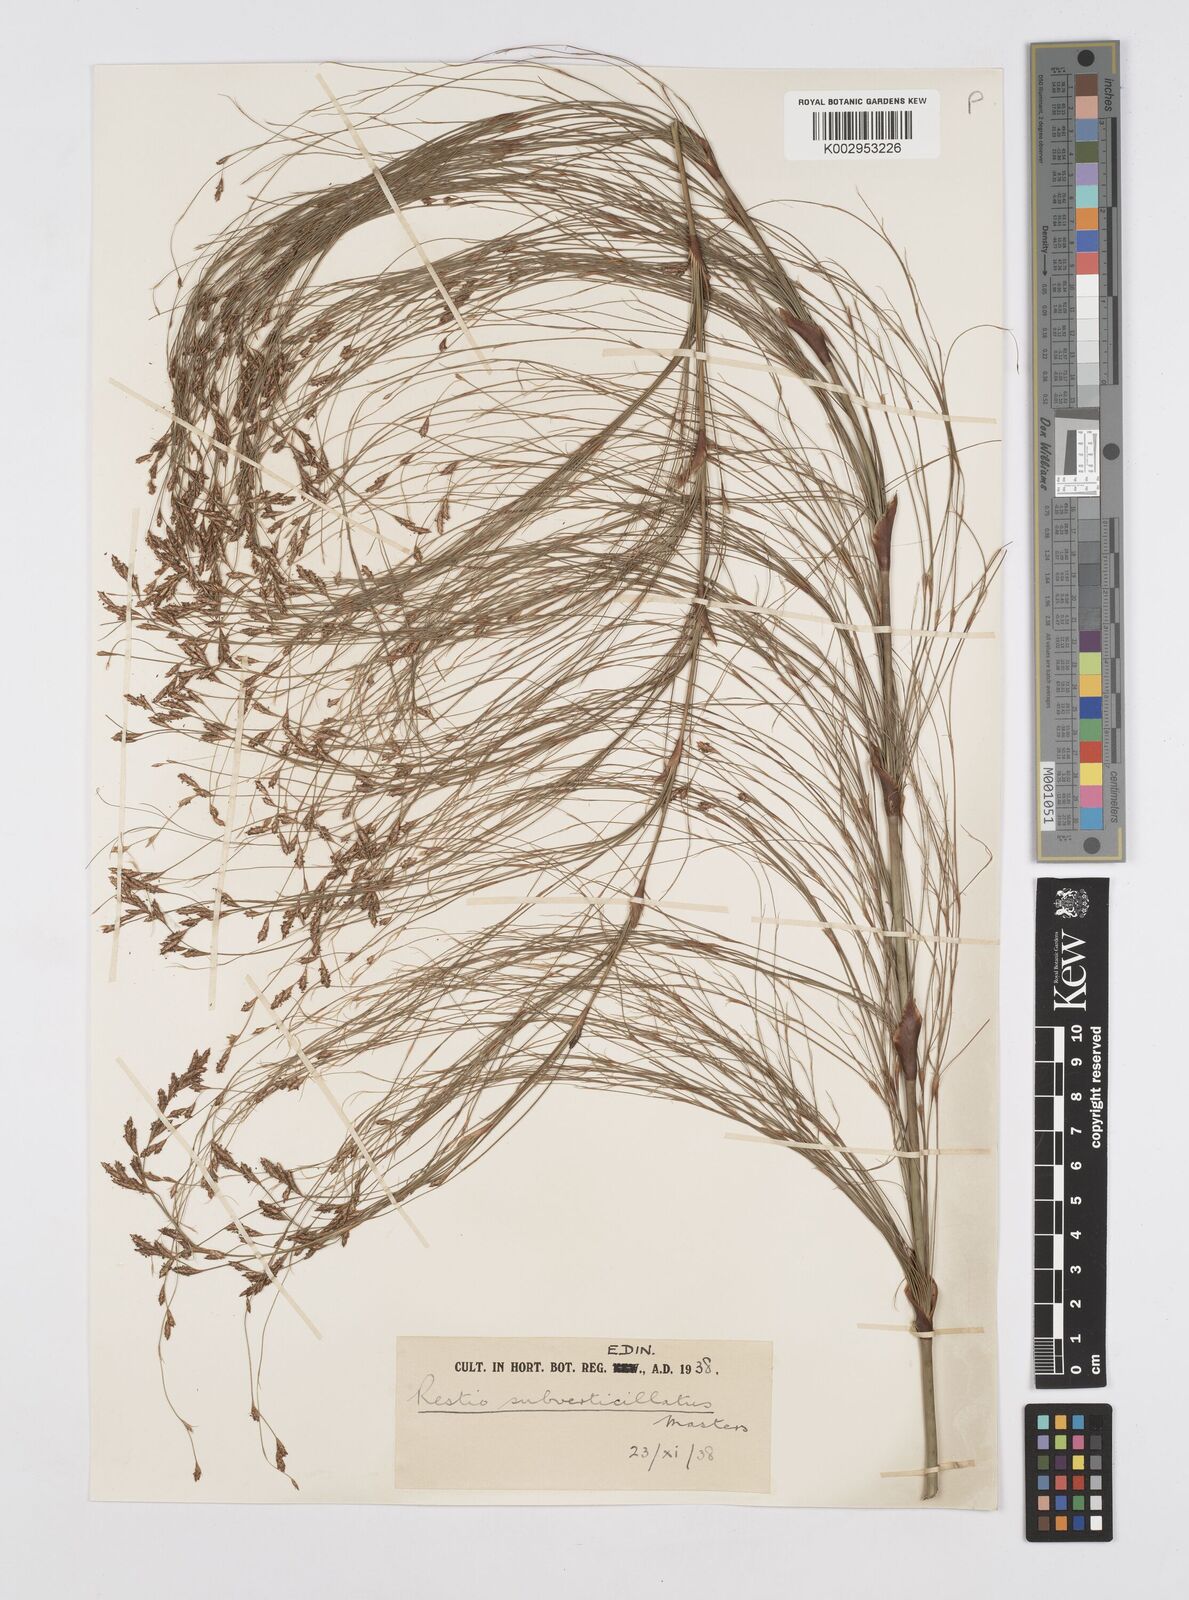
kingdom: Plantae
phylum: Tracheophyta
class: Liliopsida
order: Poales
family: Restionaceae
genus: Restio
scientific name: Restio subverticillatus
